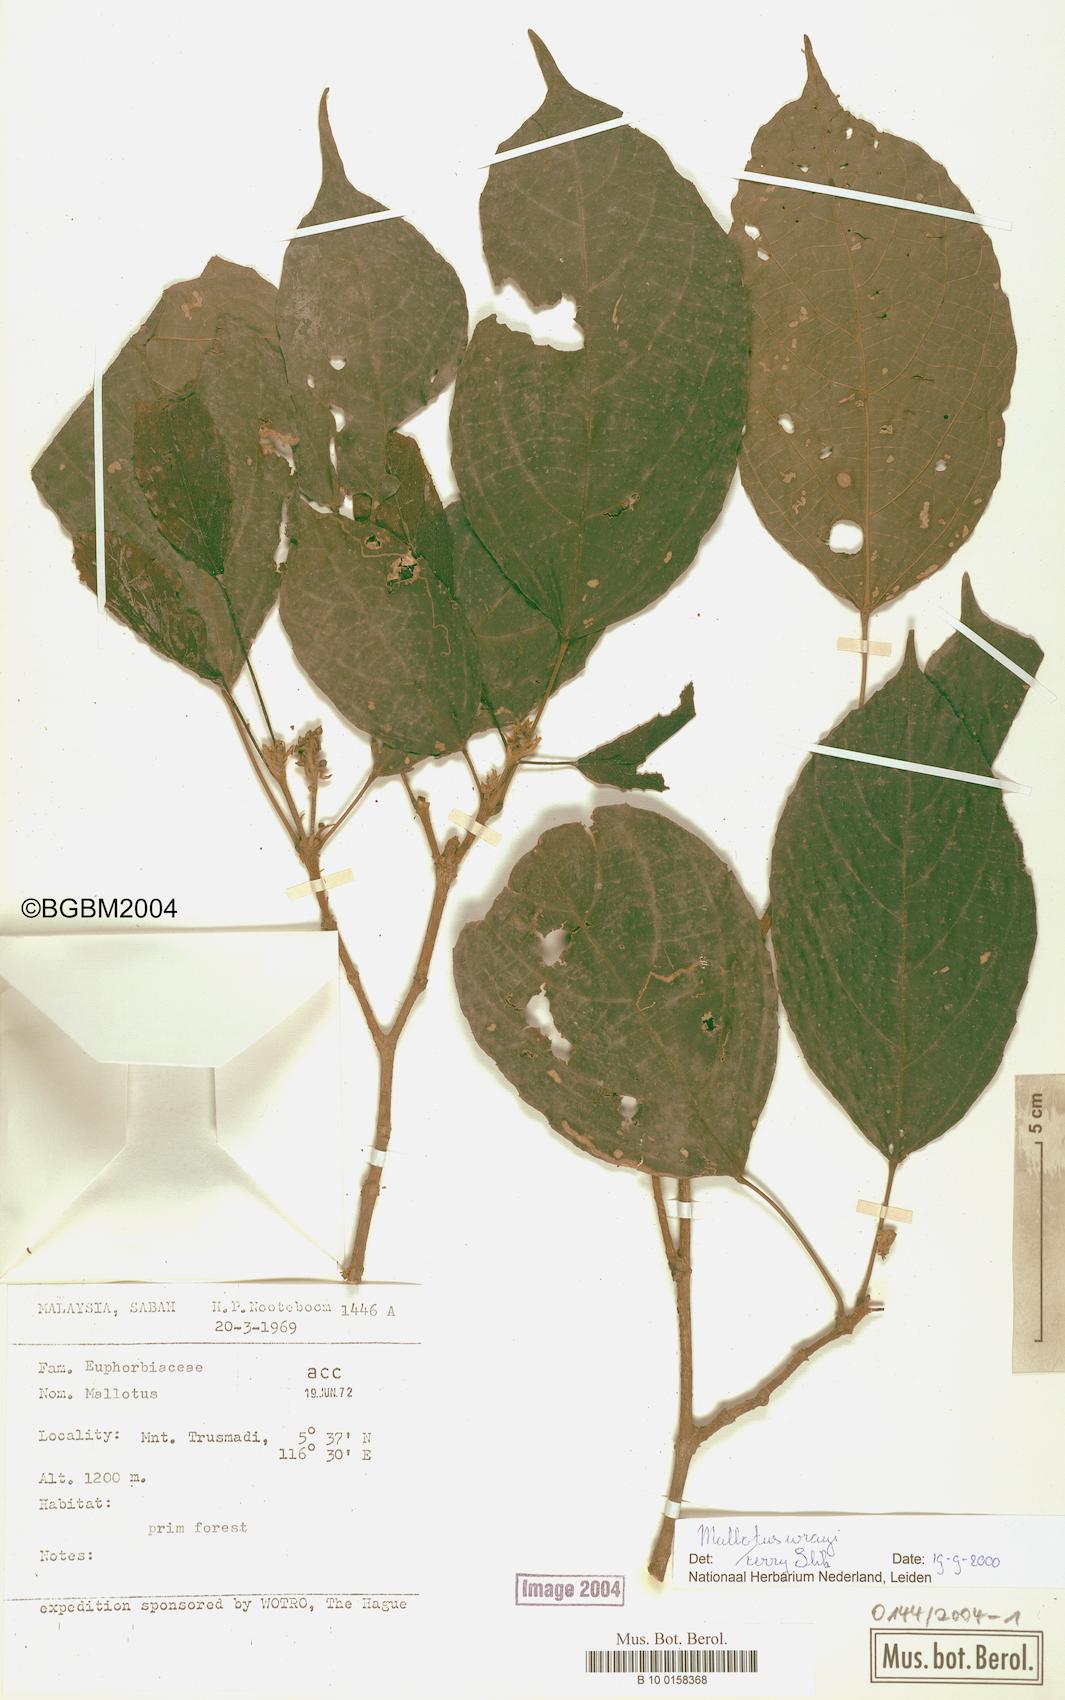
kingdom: Plantae
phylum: Tracheophyta
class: Magnoliopsida
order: Malpighiales
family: Euphorbiaceae
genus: Mallotus
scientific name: Mallotus lancifolius
